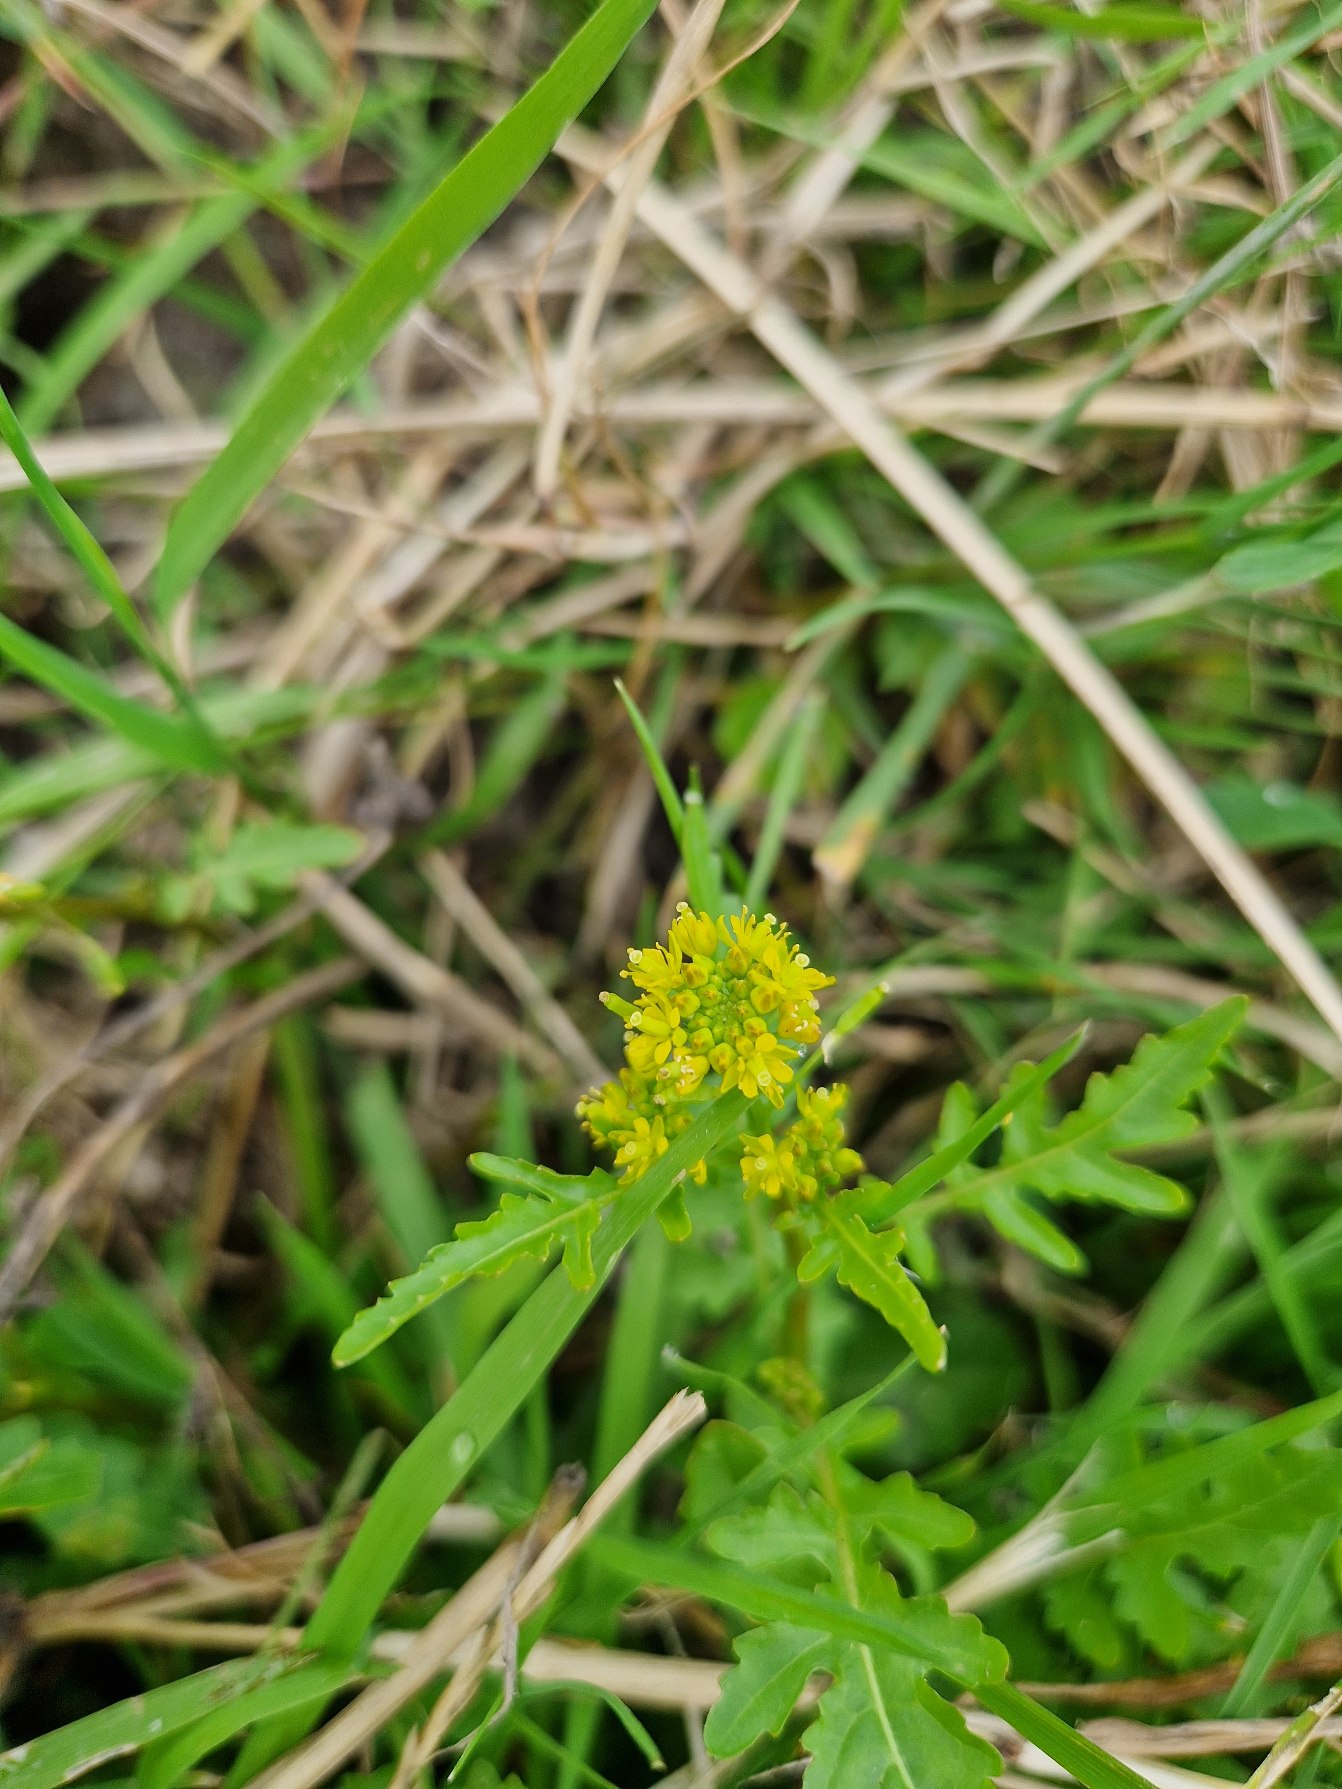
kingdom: Plantae
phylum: Tracheophyta
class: Magnoliopsida
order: Brassicales
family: Brassicaceae
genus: Rorippa
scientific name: Rorippa palustris
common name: Kær-guldkarse
